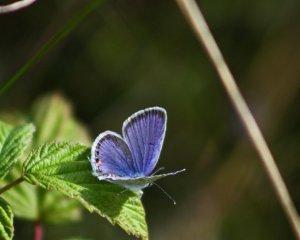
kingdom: Animalia
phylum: Arthropoda
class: Insecta
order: Lepidoptera
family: Lycaenidae
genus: Elkalyce
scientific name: Elkalyce comyntas
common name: Eastern Tailed-Blue
